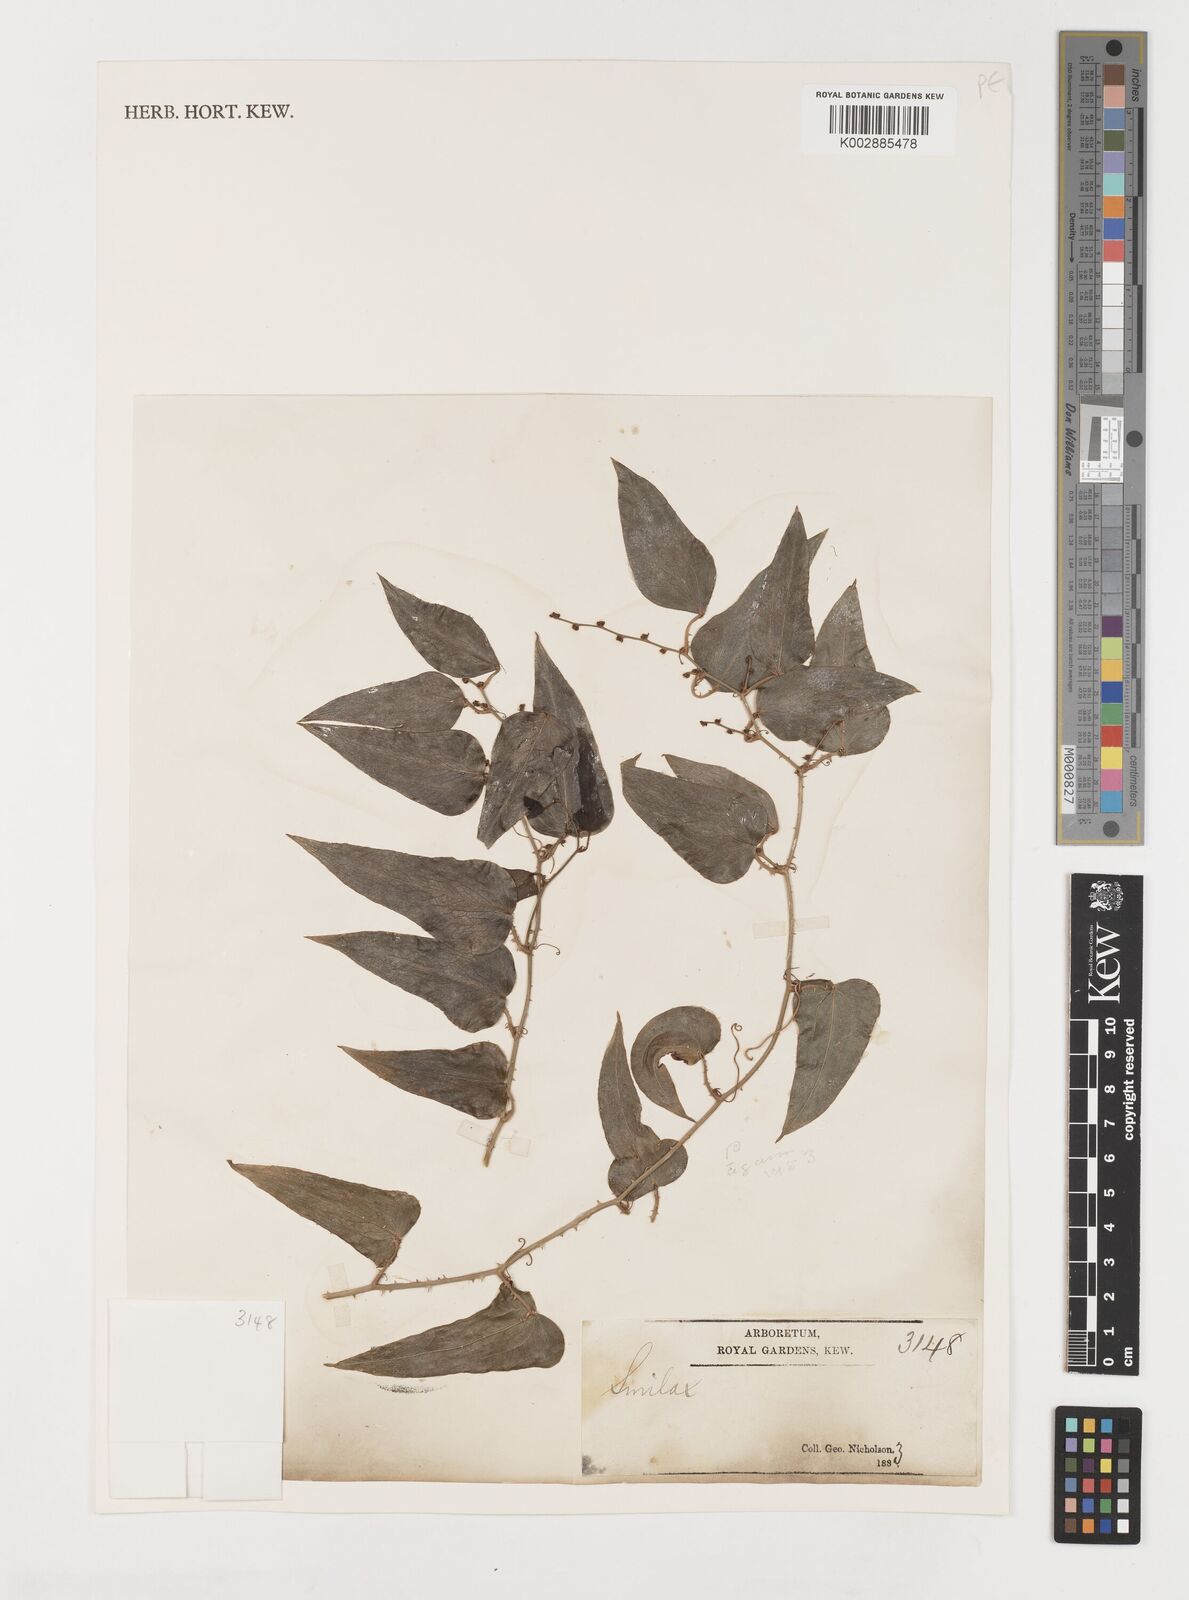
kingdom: Plantae
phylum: Tracheophyta
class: Liliopsida
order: Liliales
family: Smilacaceae
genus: Smilax
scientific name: Smilax
